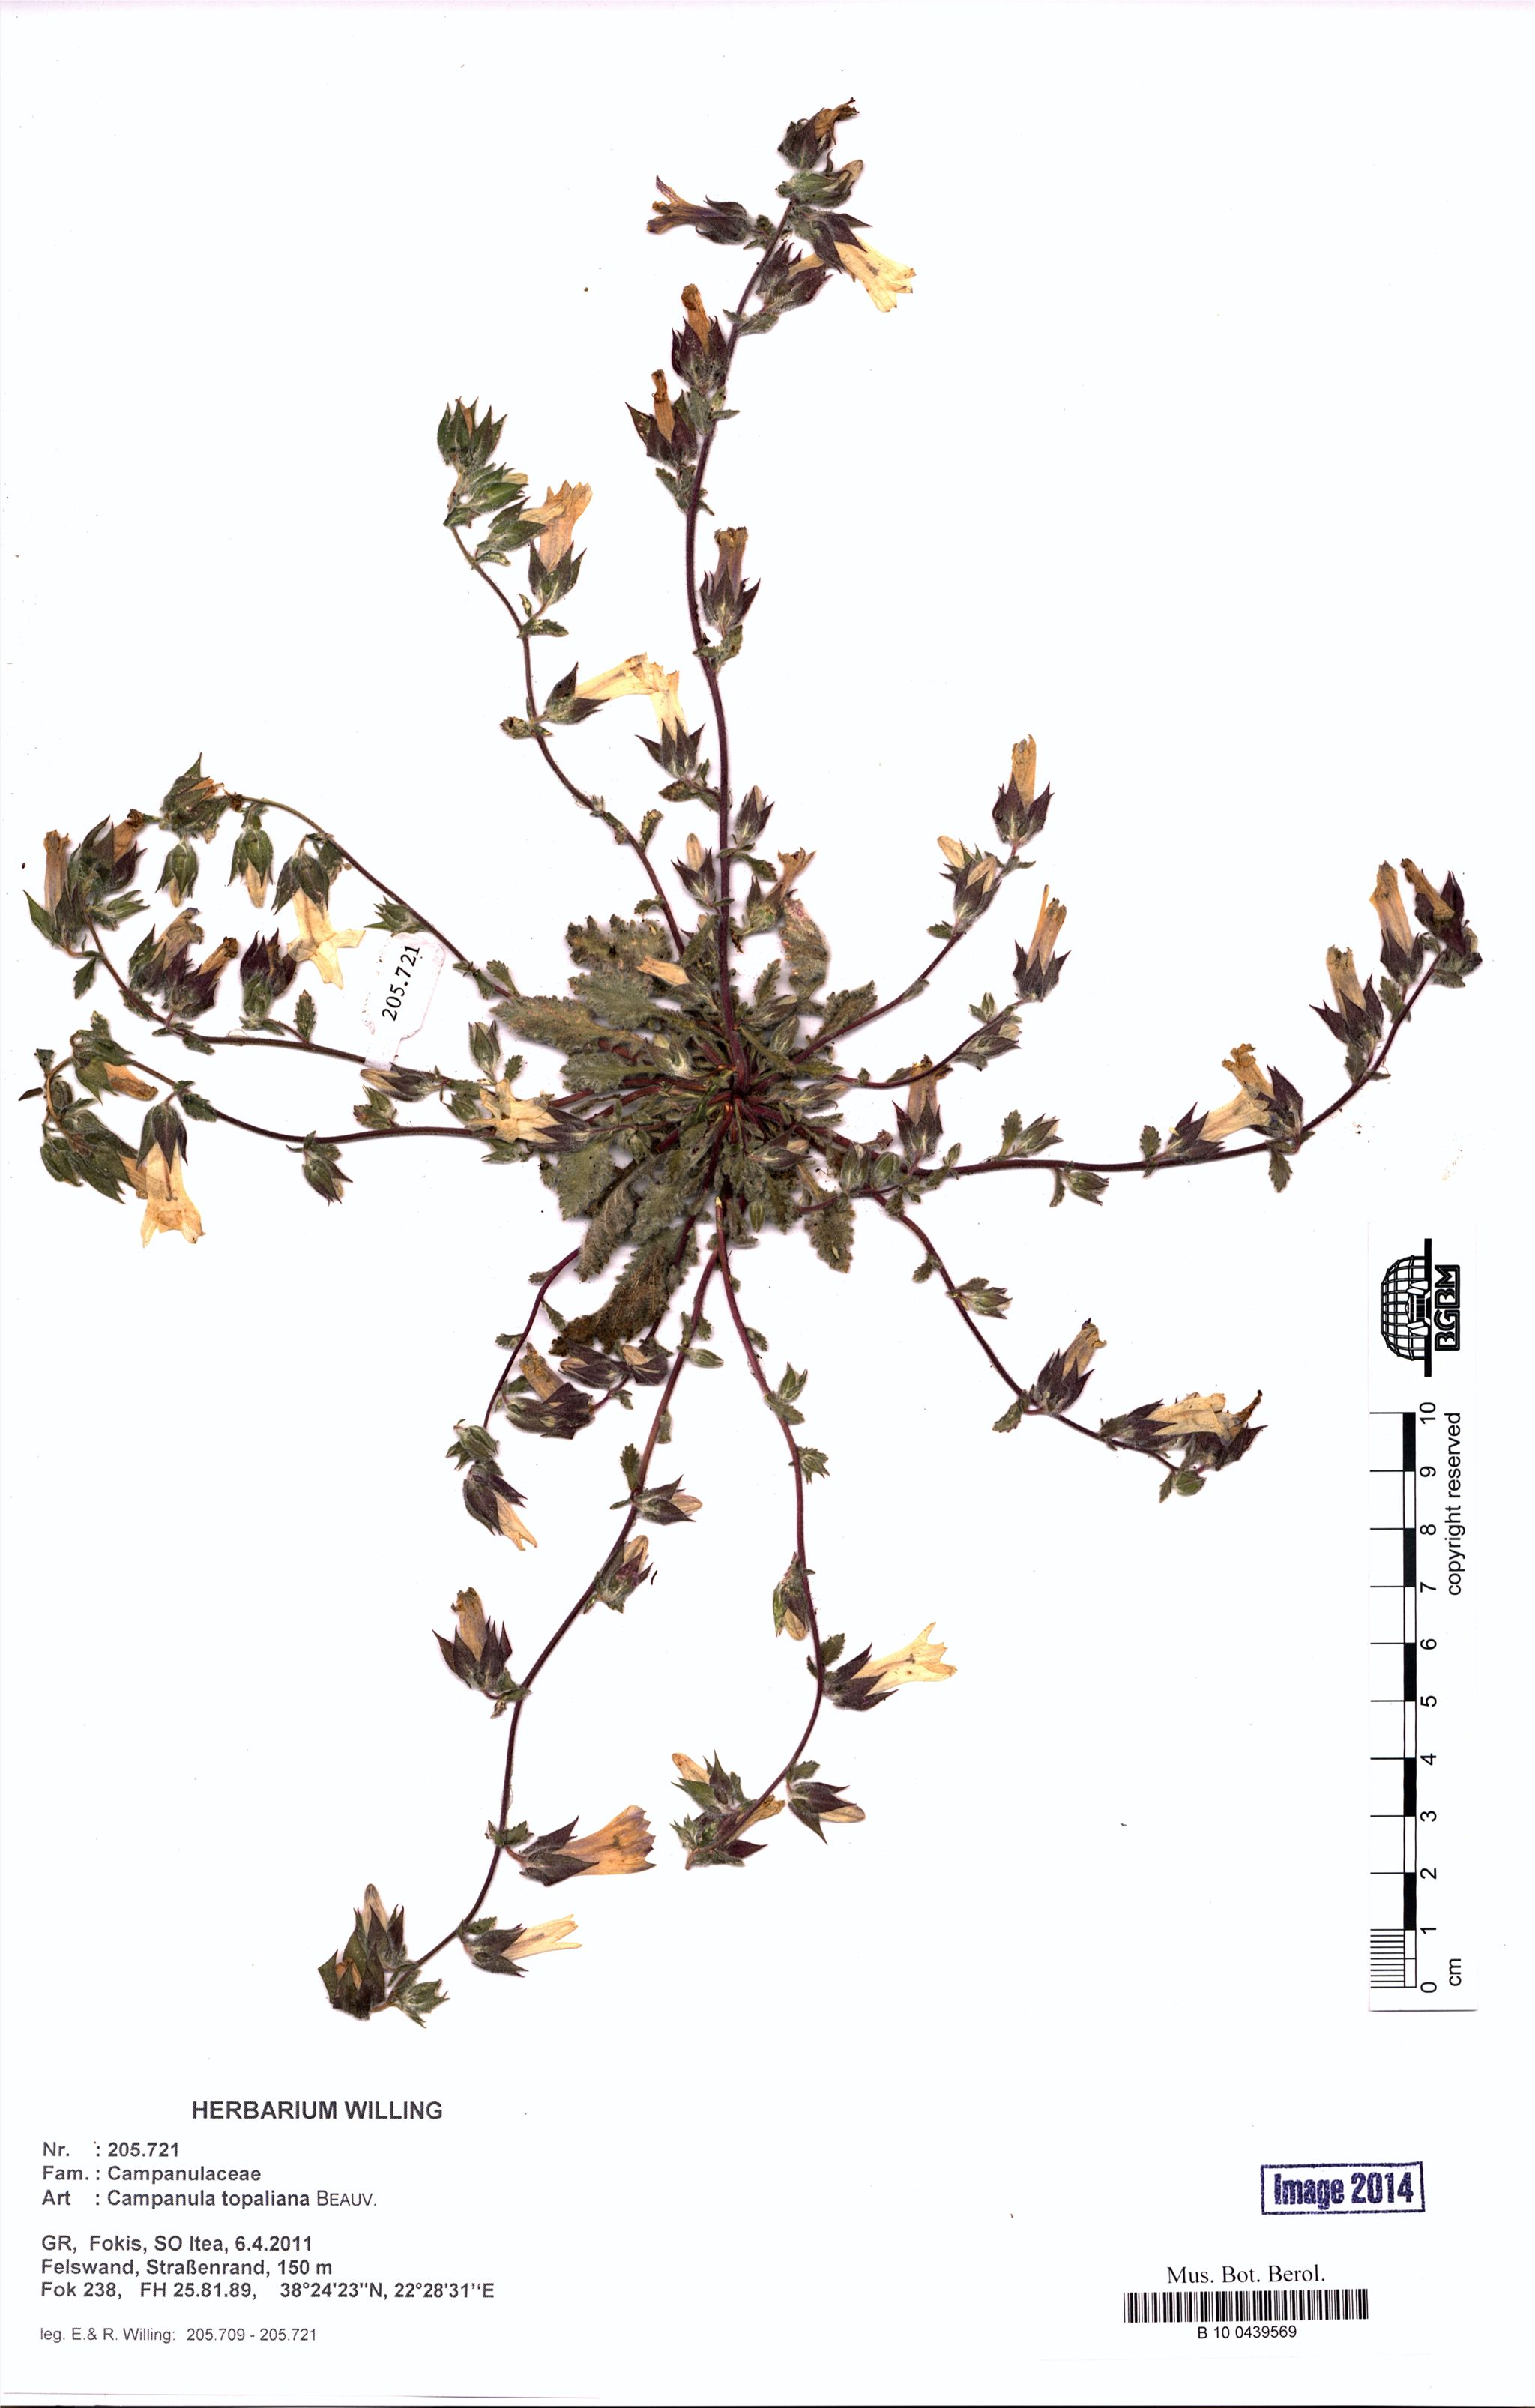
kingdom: Plantae
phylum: Tracheophyta
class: Magnoliopsida
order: Asterales
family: Campanulaceae
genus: Campanula
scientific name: Campanula topaliana
